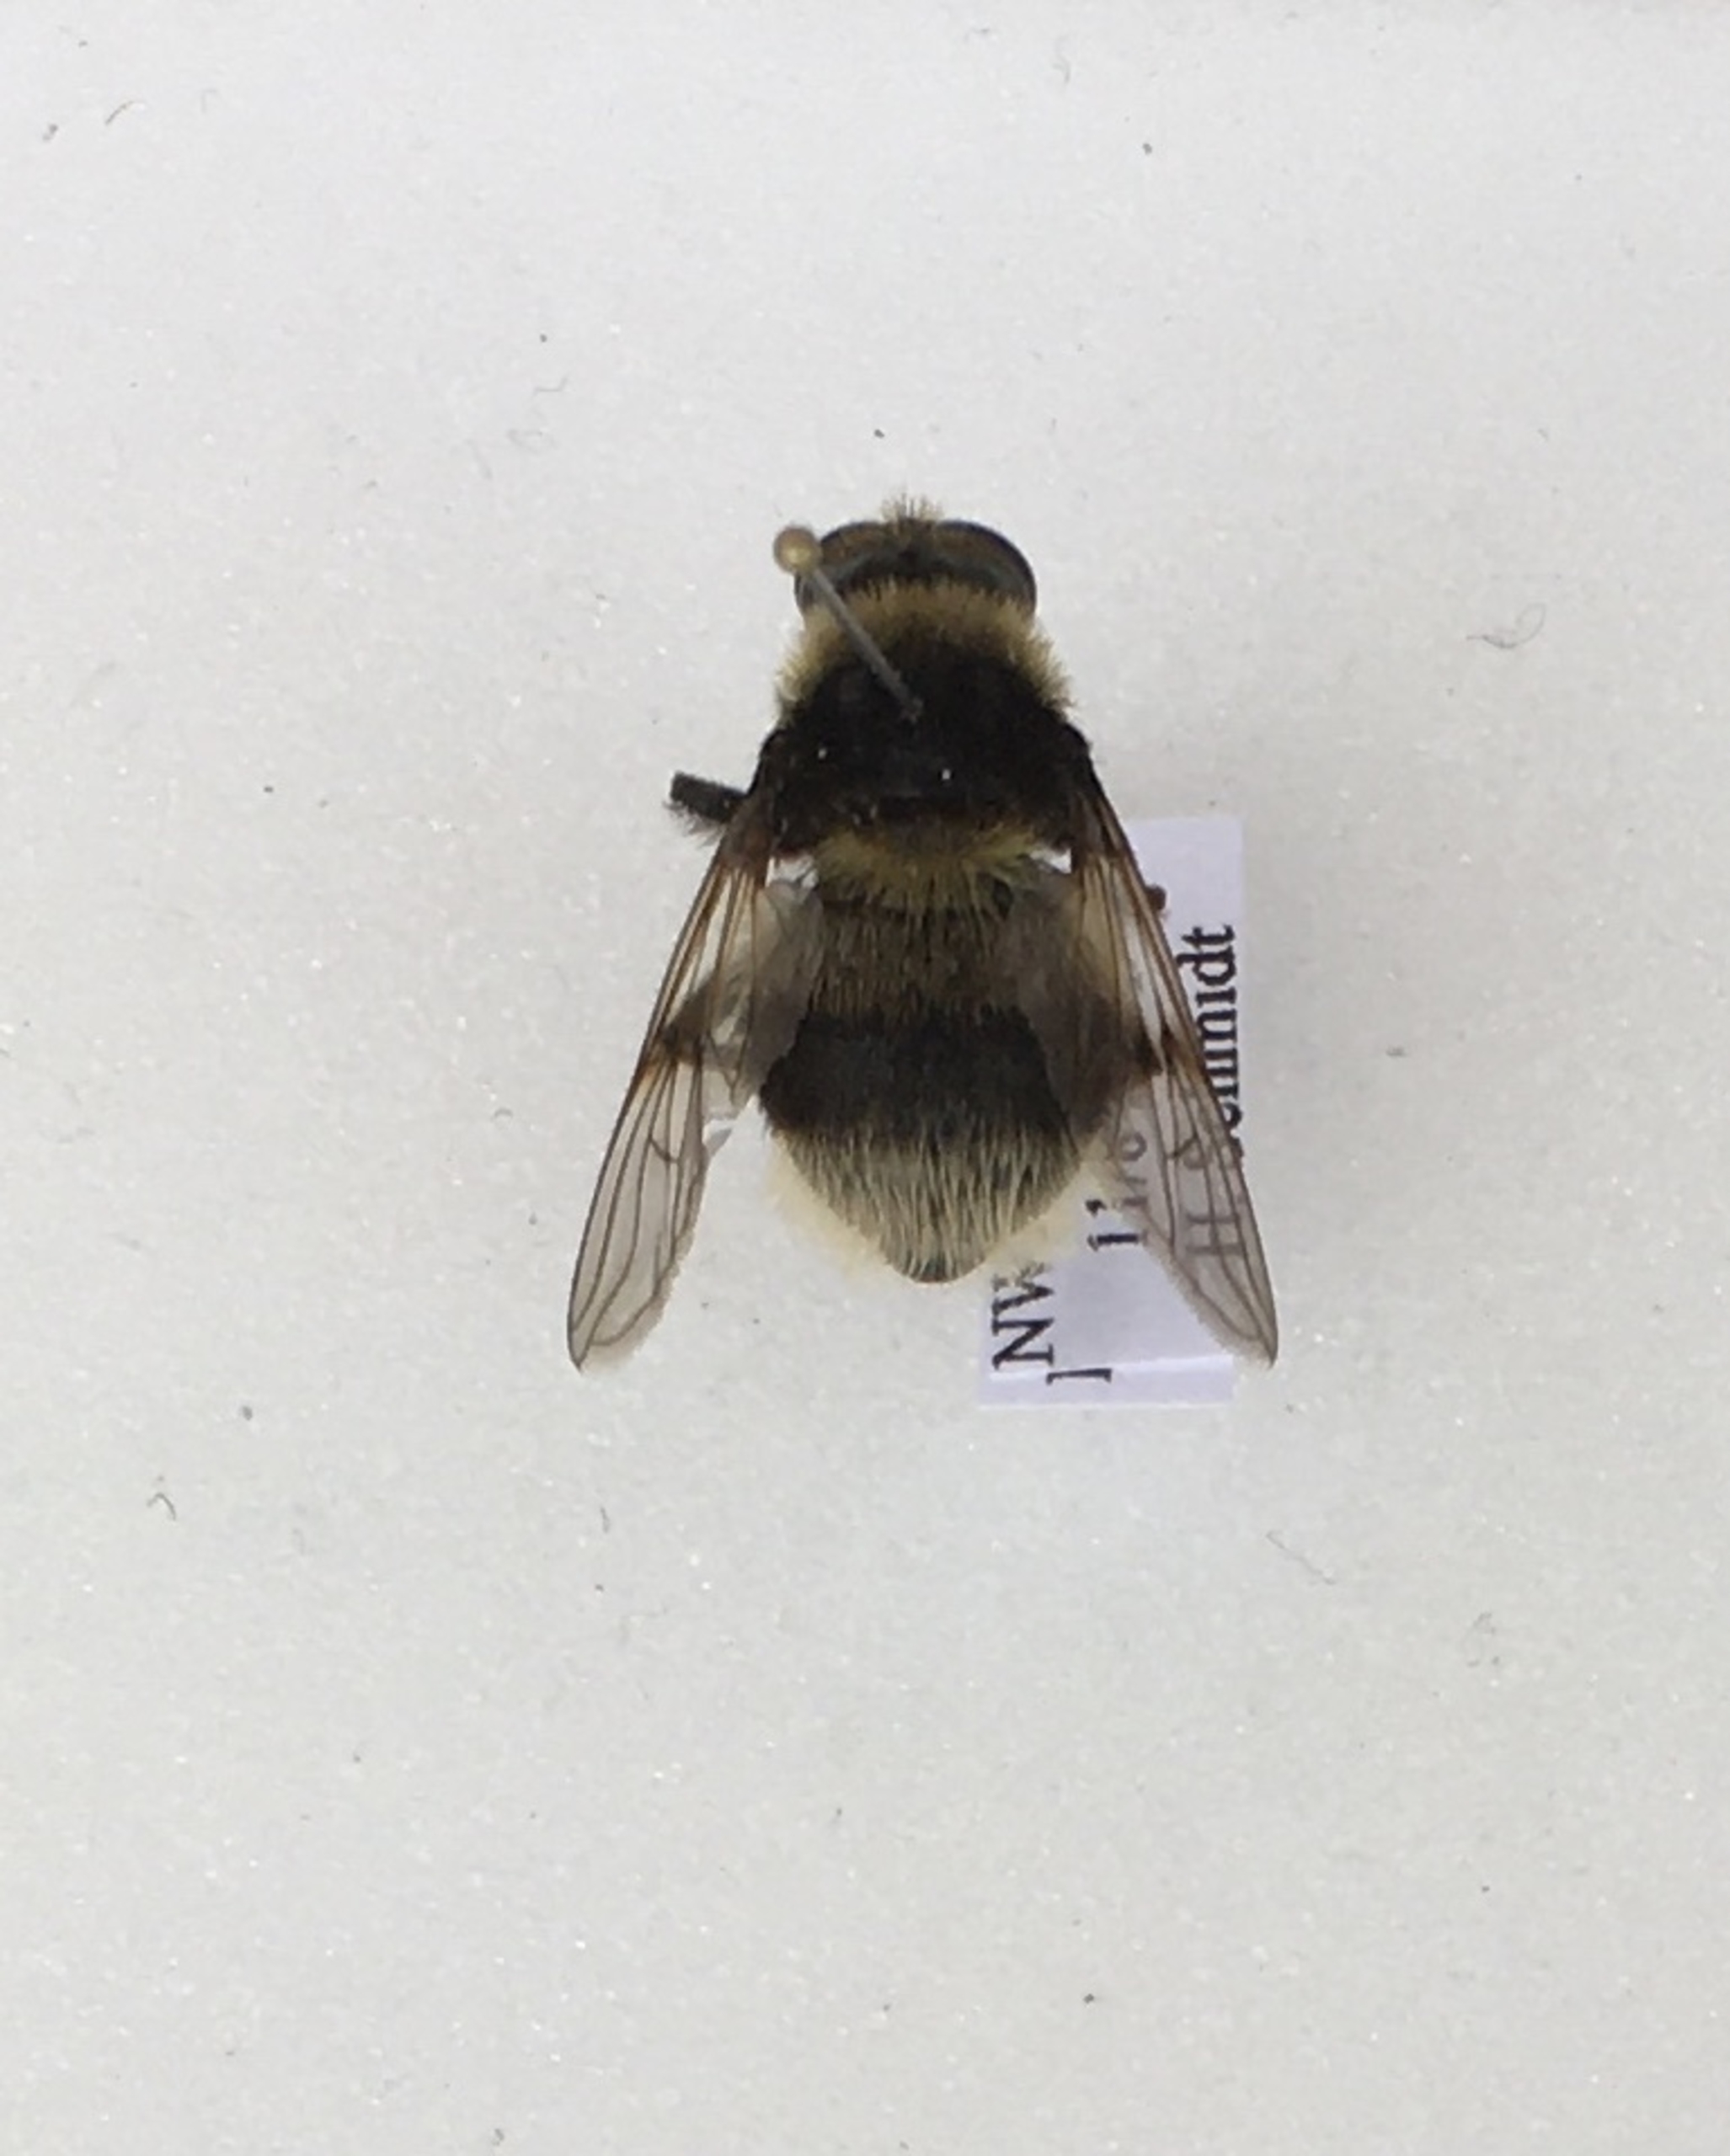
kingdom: Animalia
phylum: Arthropoda
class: Insecta
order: Diptera
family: Syrphidae
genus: Sericomyia
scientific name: Sericomyia bombiformis
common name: Gul bjørnesvirreflue
